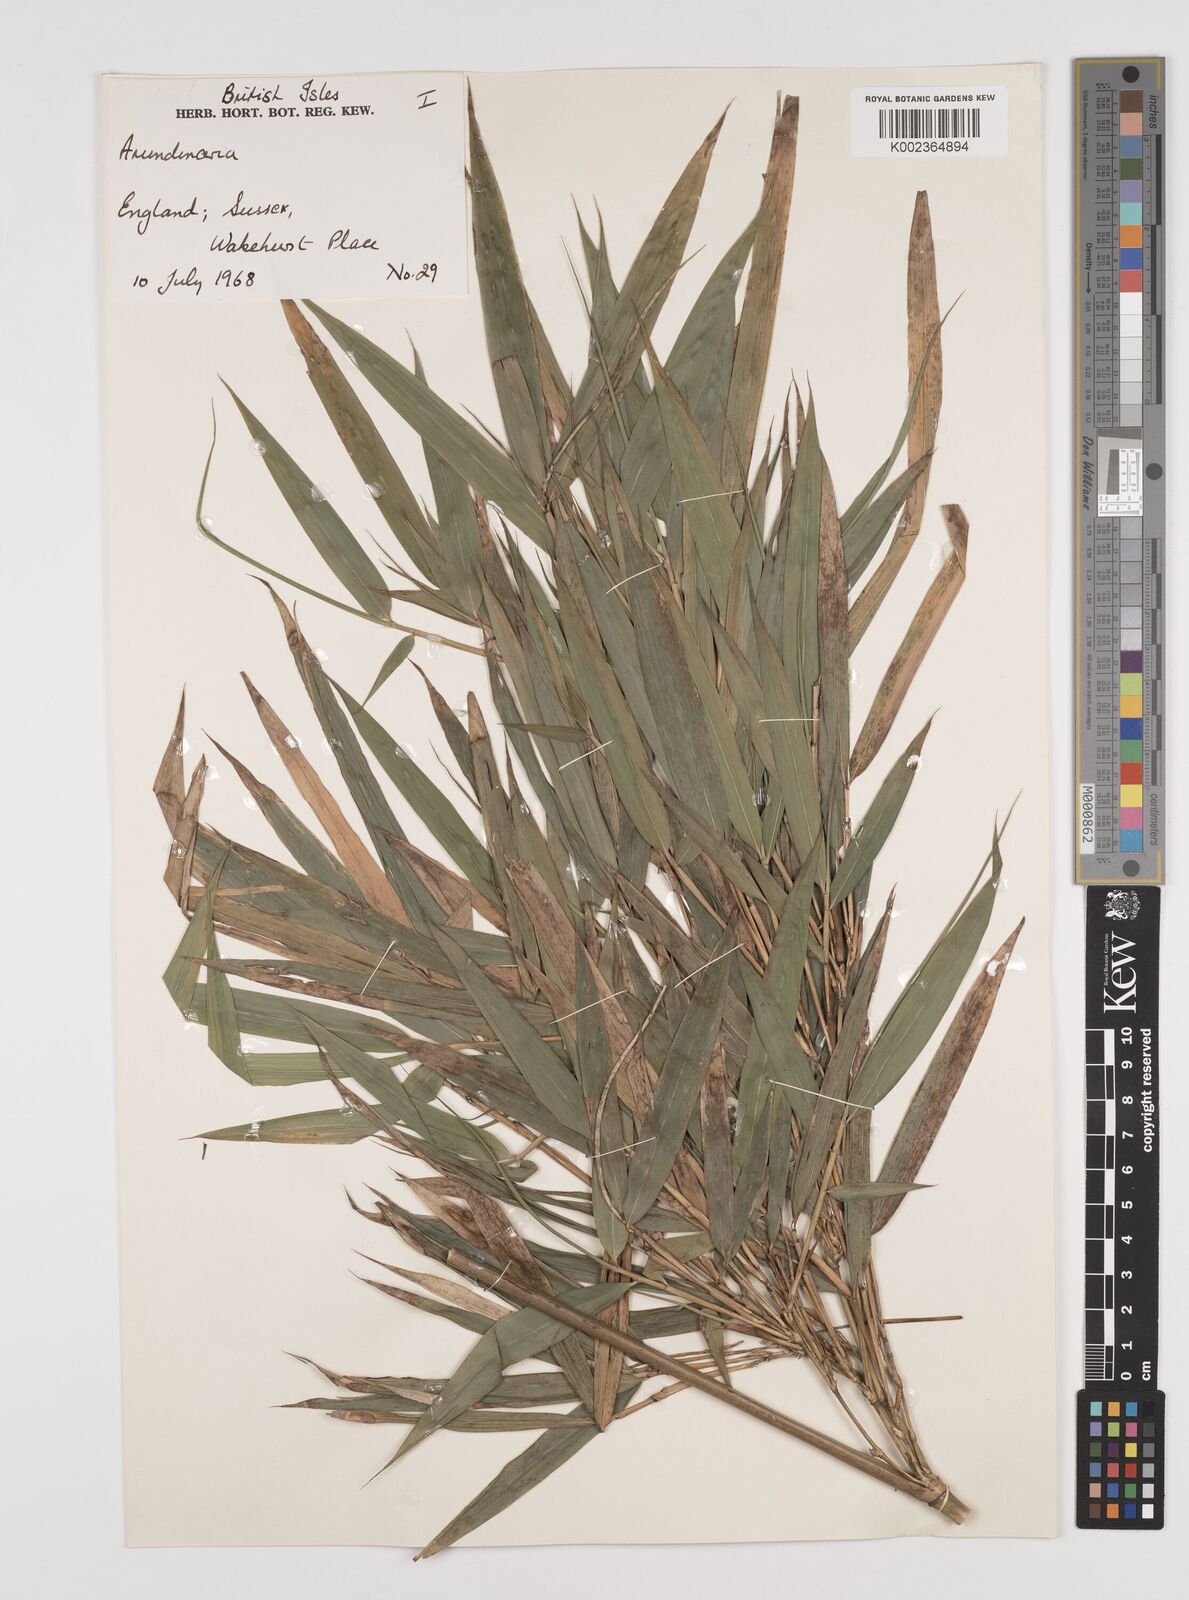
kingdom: Plantae
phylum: Tracheophyta
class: Liliopsida
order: Poales
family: Poaceae
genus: Pleioblastus
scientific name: Pleioblastus argenteostriatus
